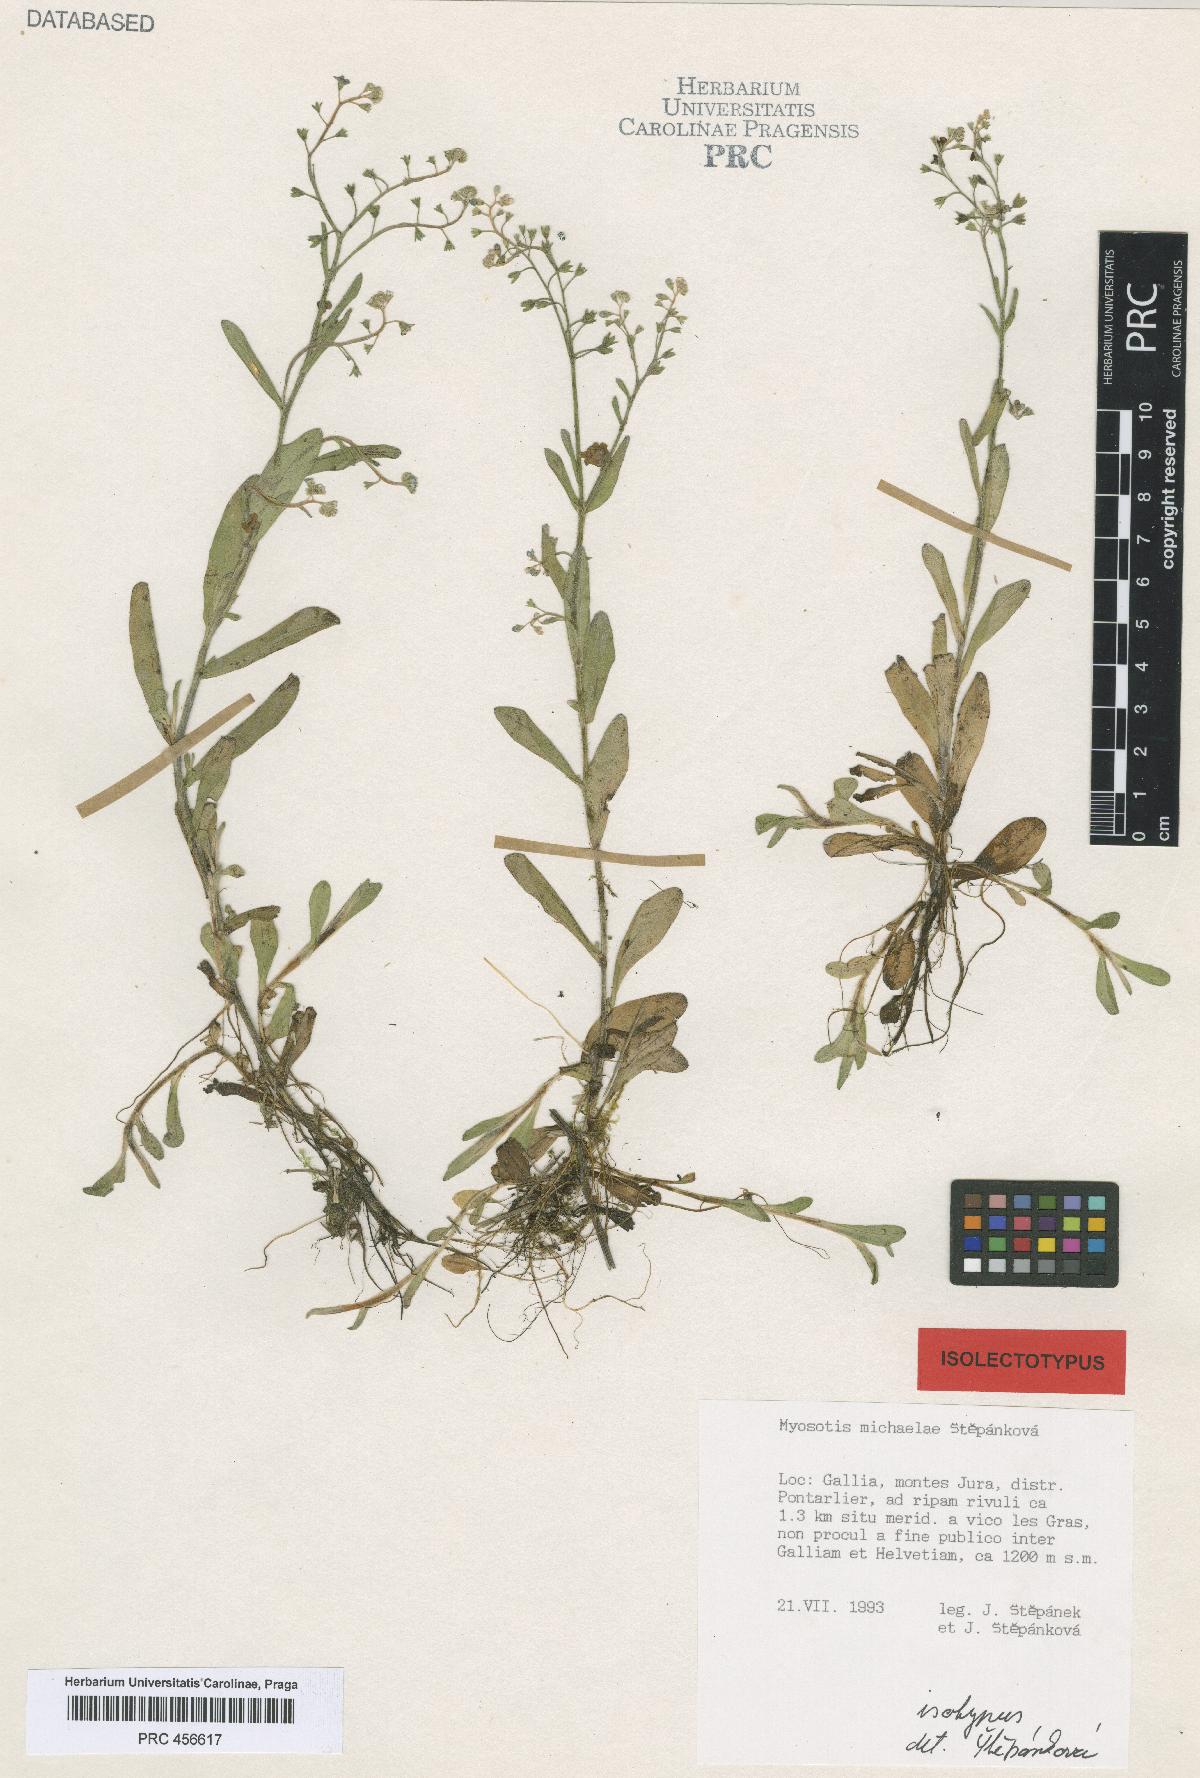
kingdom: Plantae
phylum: Tracheophyta
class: Magnoliopsida
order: Boraginales
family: Boraginaceae
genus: Myosotis
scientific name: Myosotis michaelae
